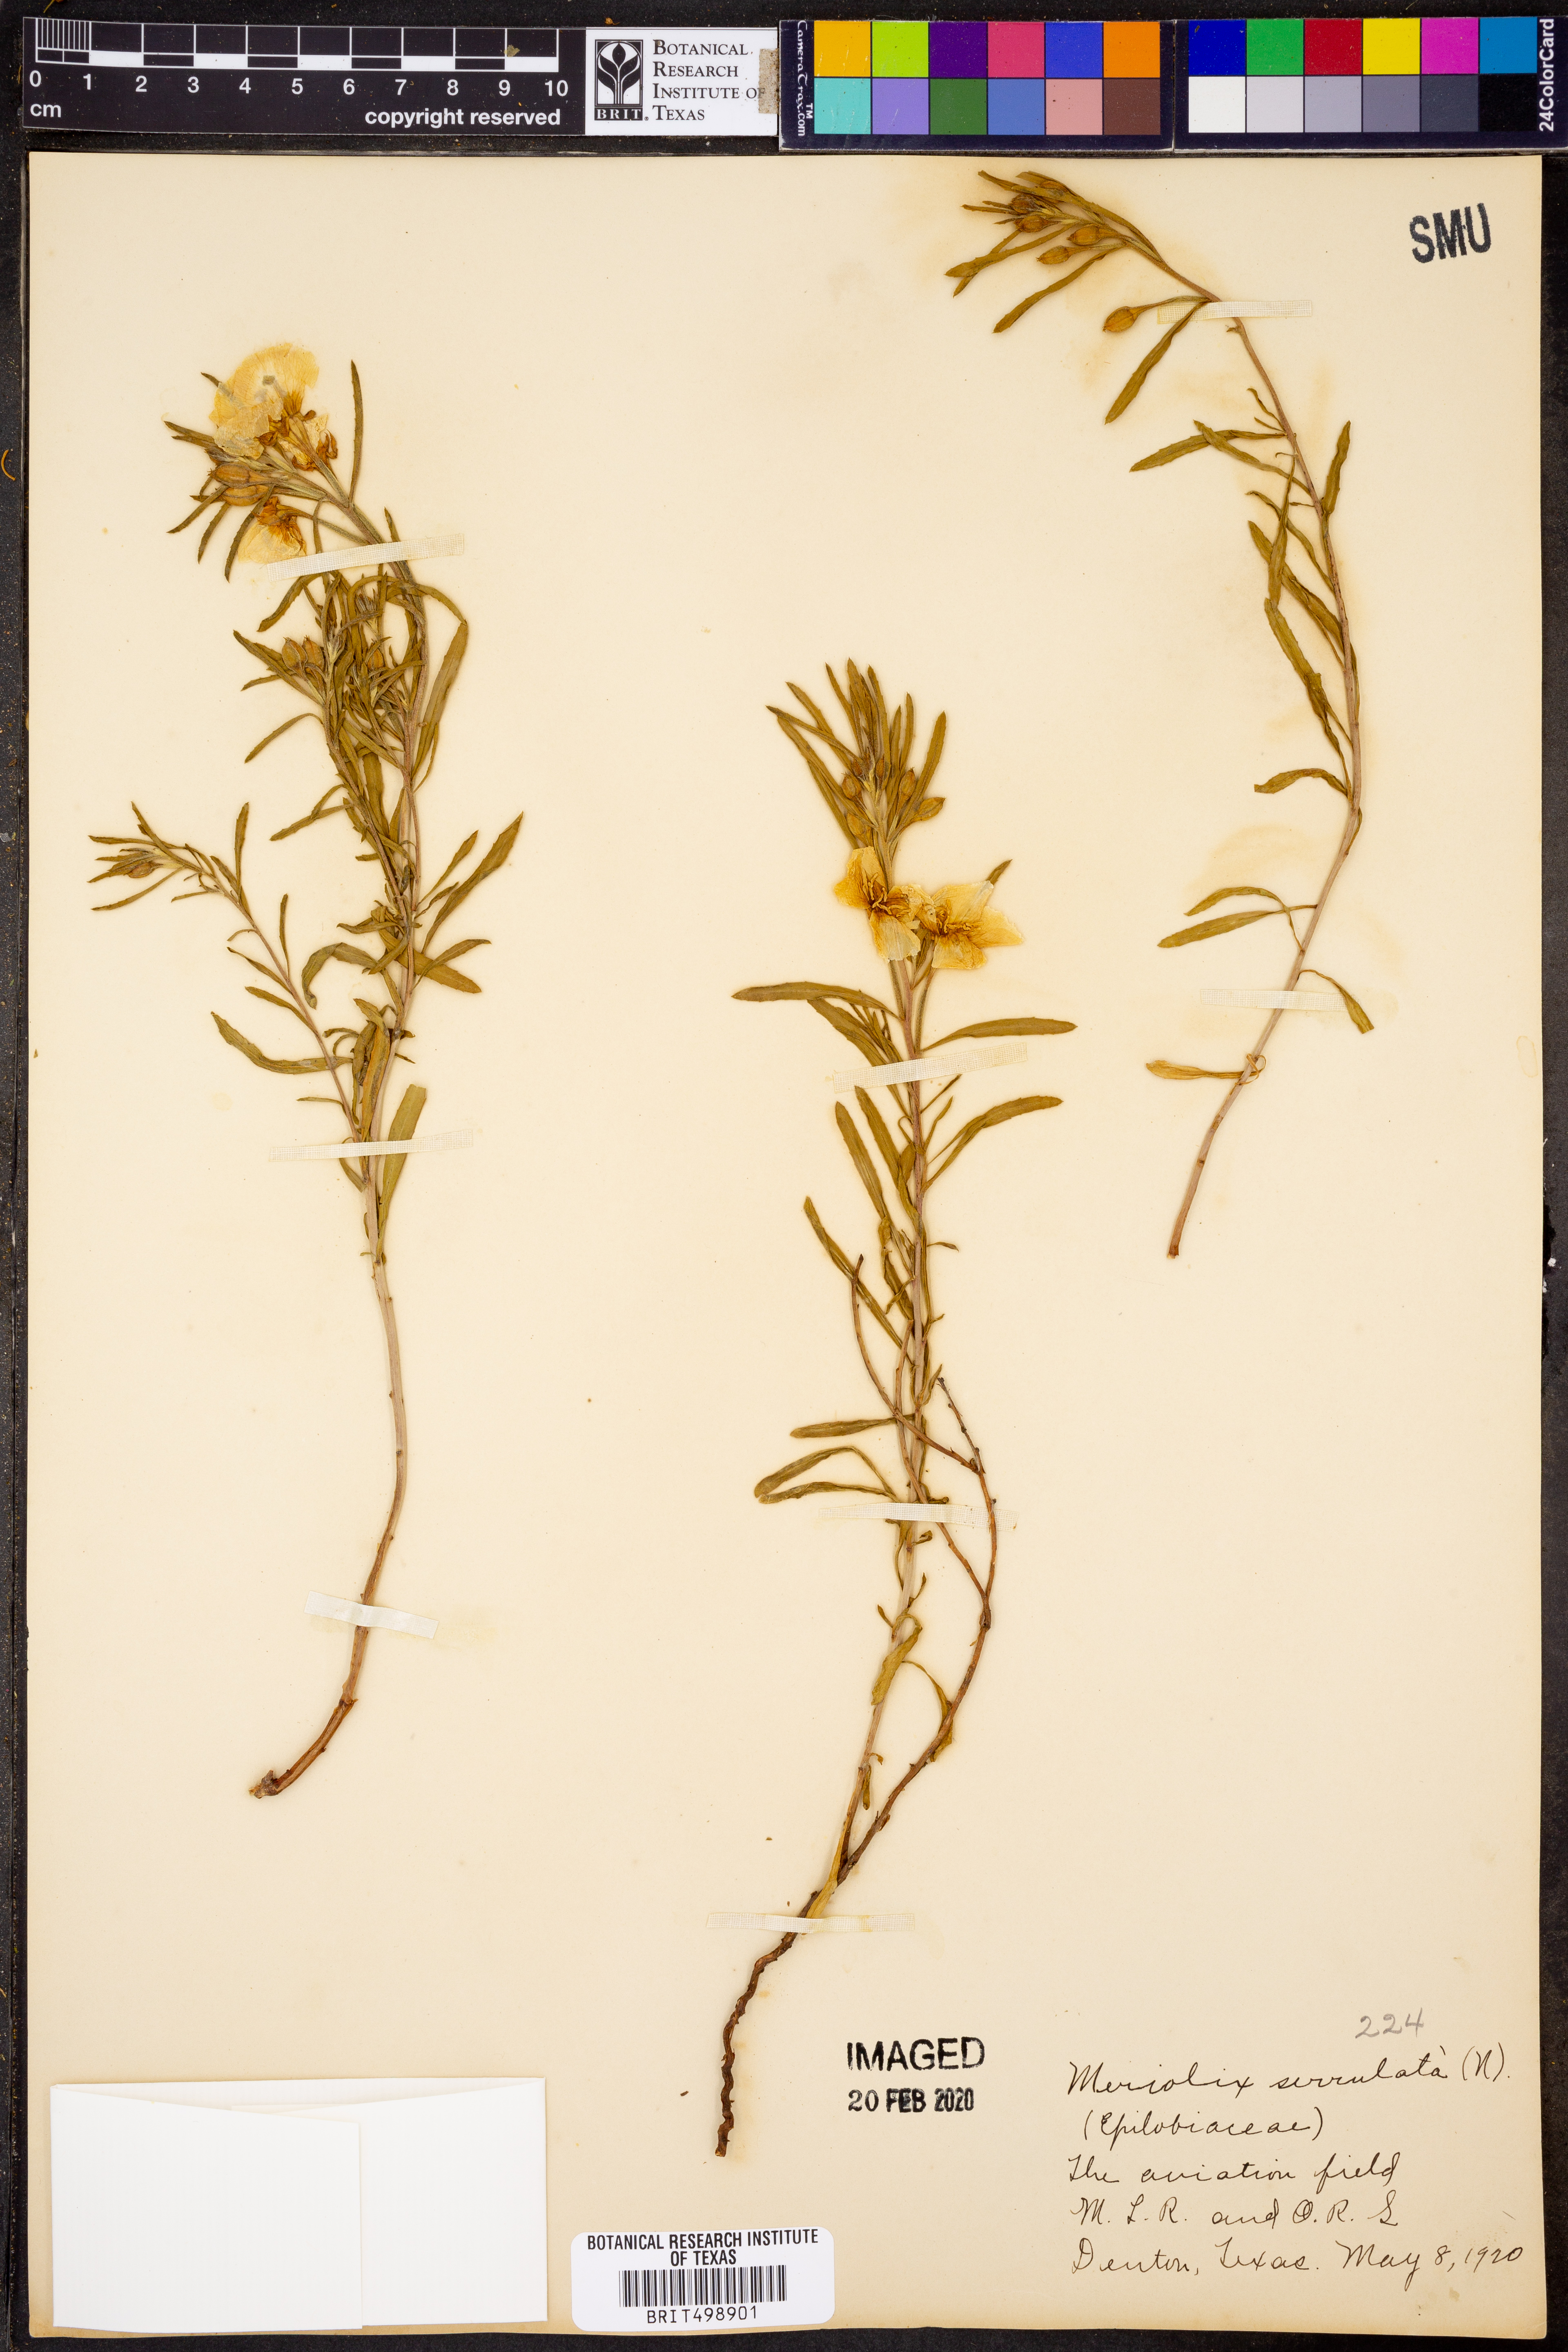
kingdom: Plantae
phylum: Tracheophyta
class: Magnoliopsida
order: Myrtales
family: Onagraceae
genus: Oenothera
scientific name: Oenothera serrulata
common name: Half-shrub calylophus
